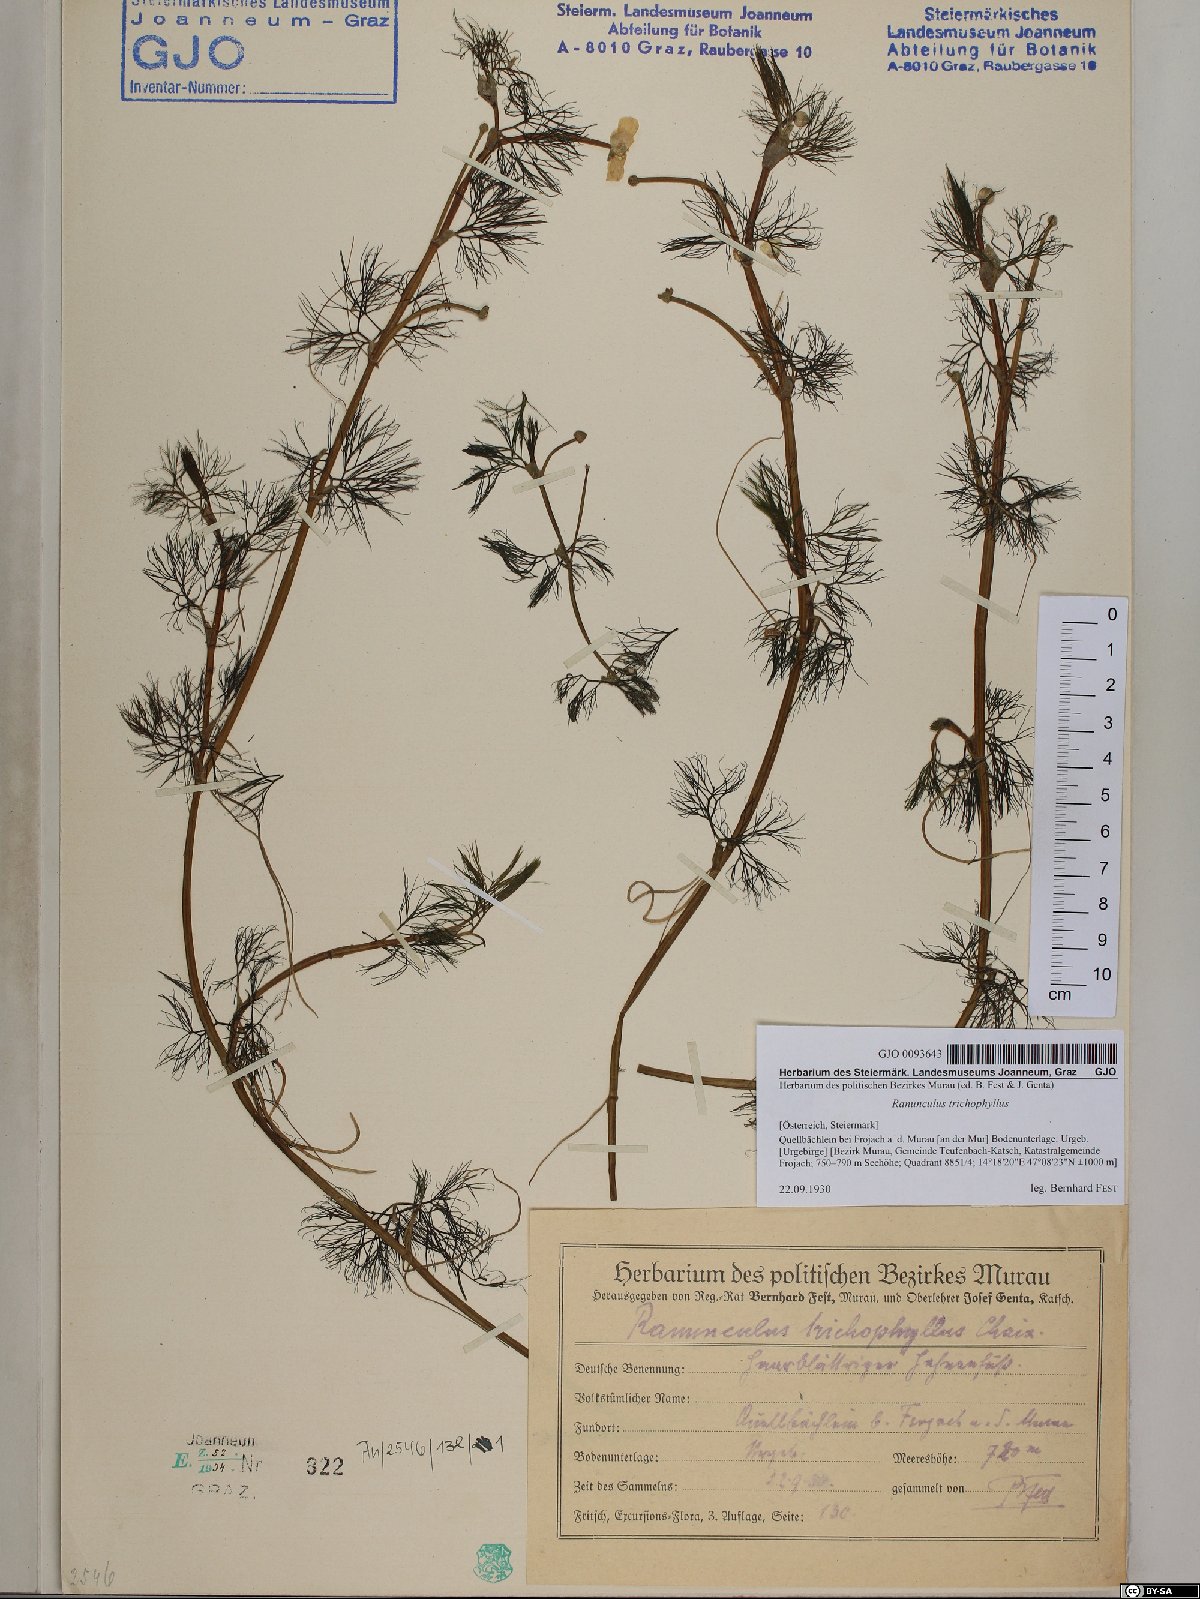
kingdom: Plantae
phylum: Tracheophyta
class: Magnoliopsida
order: Ranunculales
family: Ranunculaceae
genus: Ranunculus
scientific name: Ranunculus trichophyllus
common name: Thread-leaved water-crowfoot
